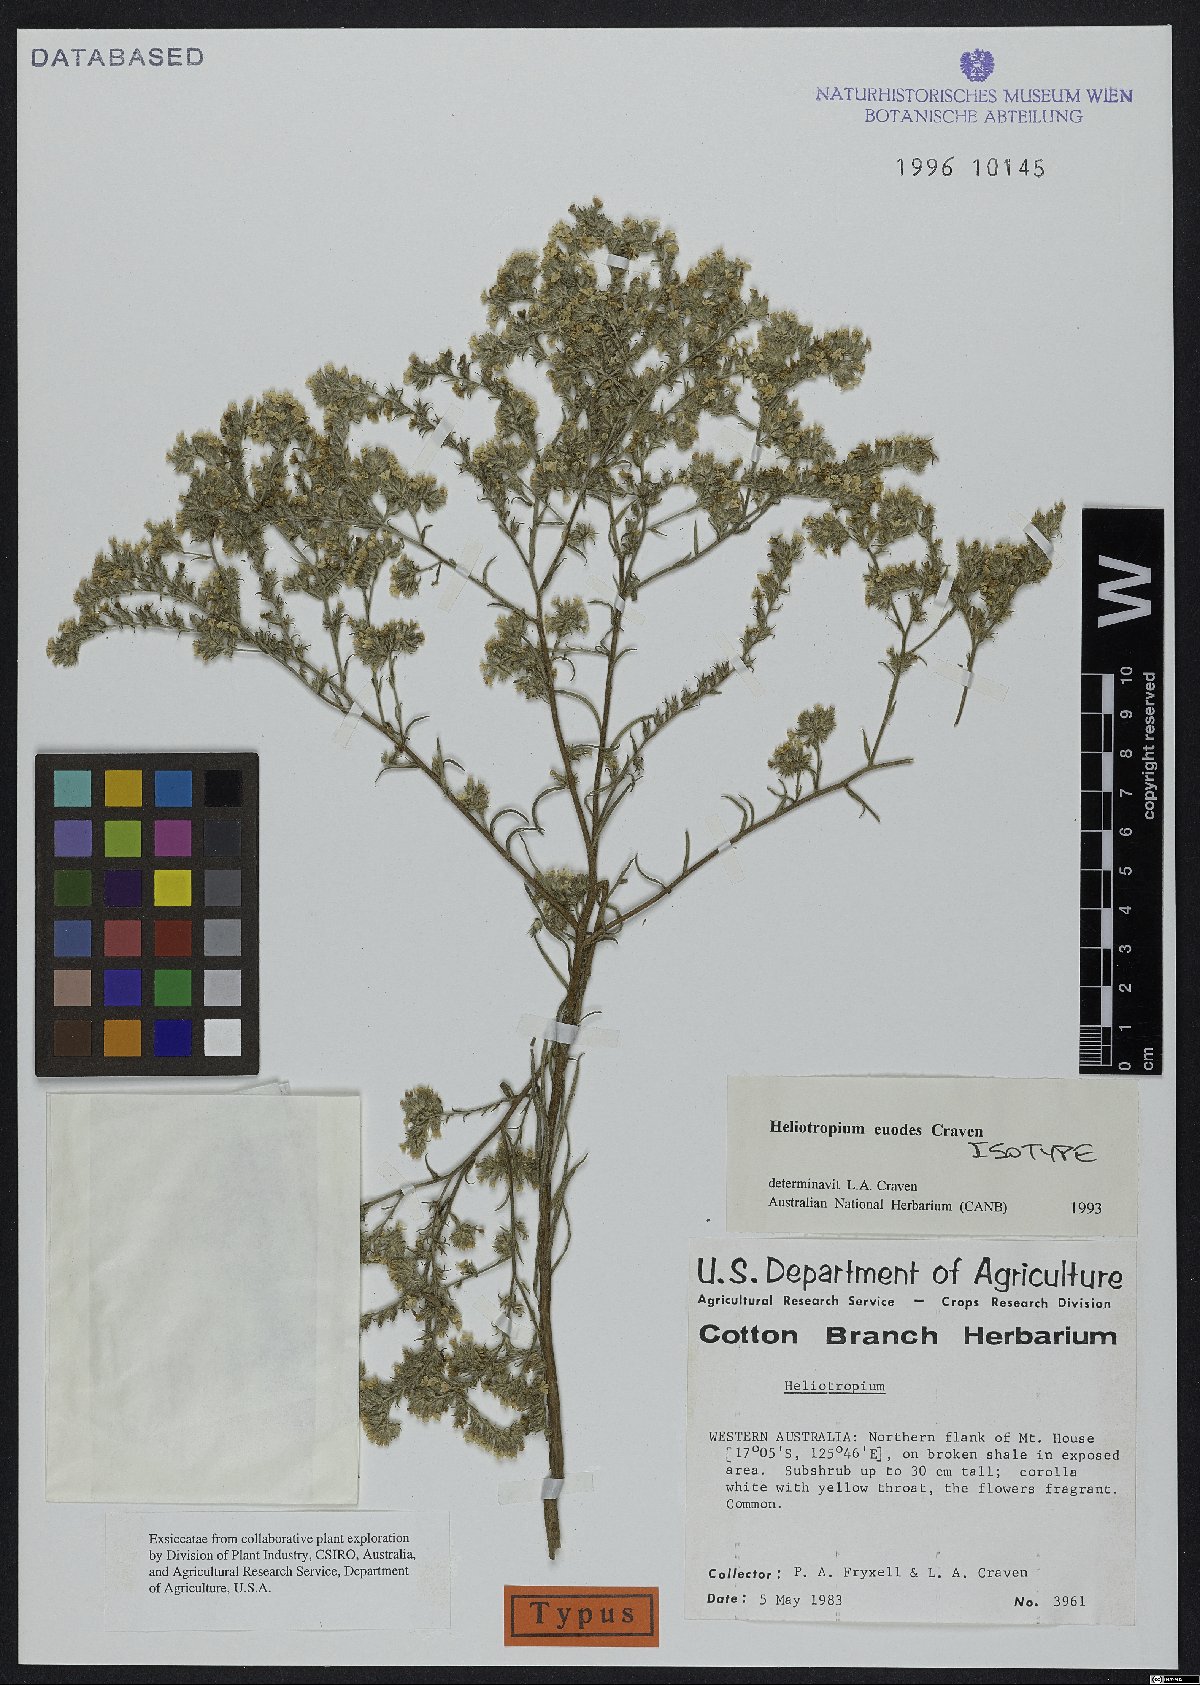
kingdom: Plantae
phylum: Tracheophyta
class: Magnoliopsida
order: Boraginales
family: Heliotropiaceae
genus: Euploca
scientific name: Euploca euodes
